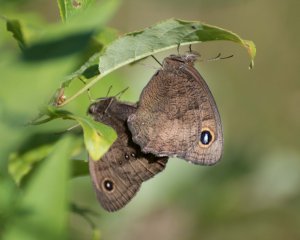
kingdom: Animalia
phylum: Arthropoda
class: Insecta
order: Lepidoptera
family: Nymphalidae
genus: Cercyonis
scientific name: Cercyonis pegala
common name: Common Wood-Nymph
